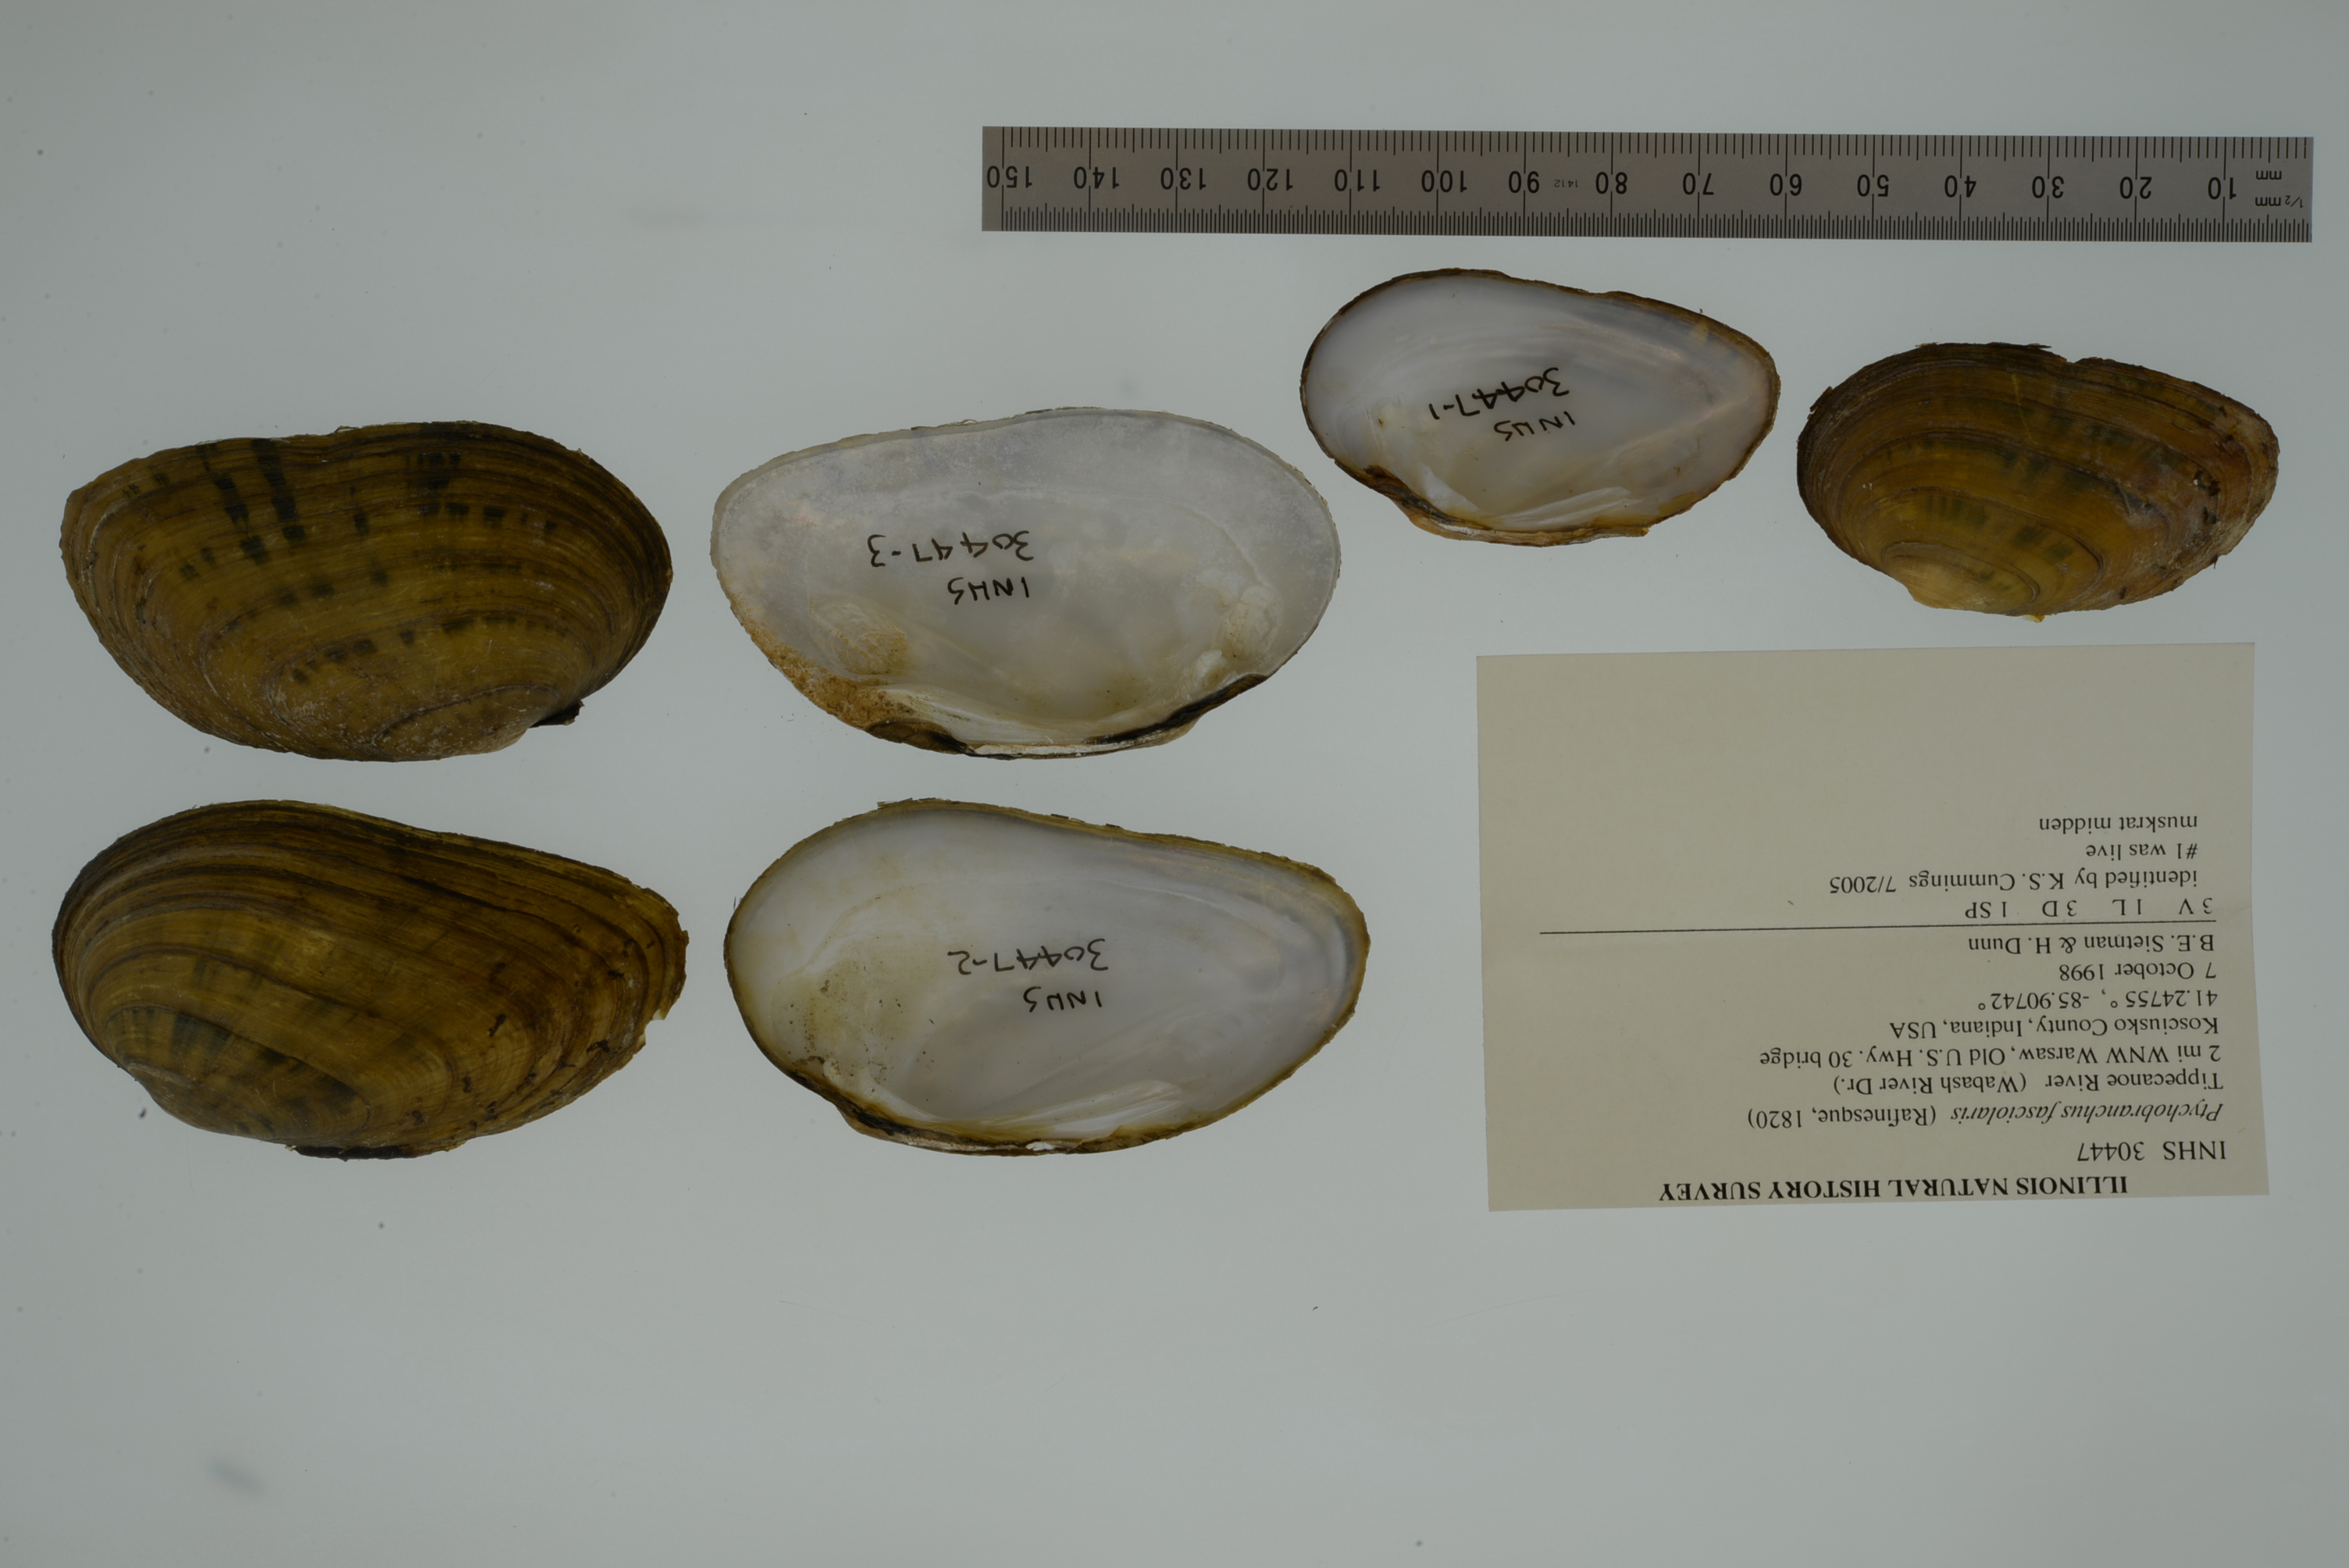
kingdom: Animalia
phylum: Mollusca
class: Bivalvia
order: Unionida
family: Unionidae
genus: Ptychobranchus
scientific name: Ptychobranchus fasciolaris
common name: Kidneyshell
